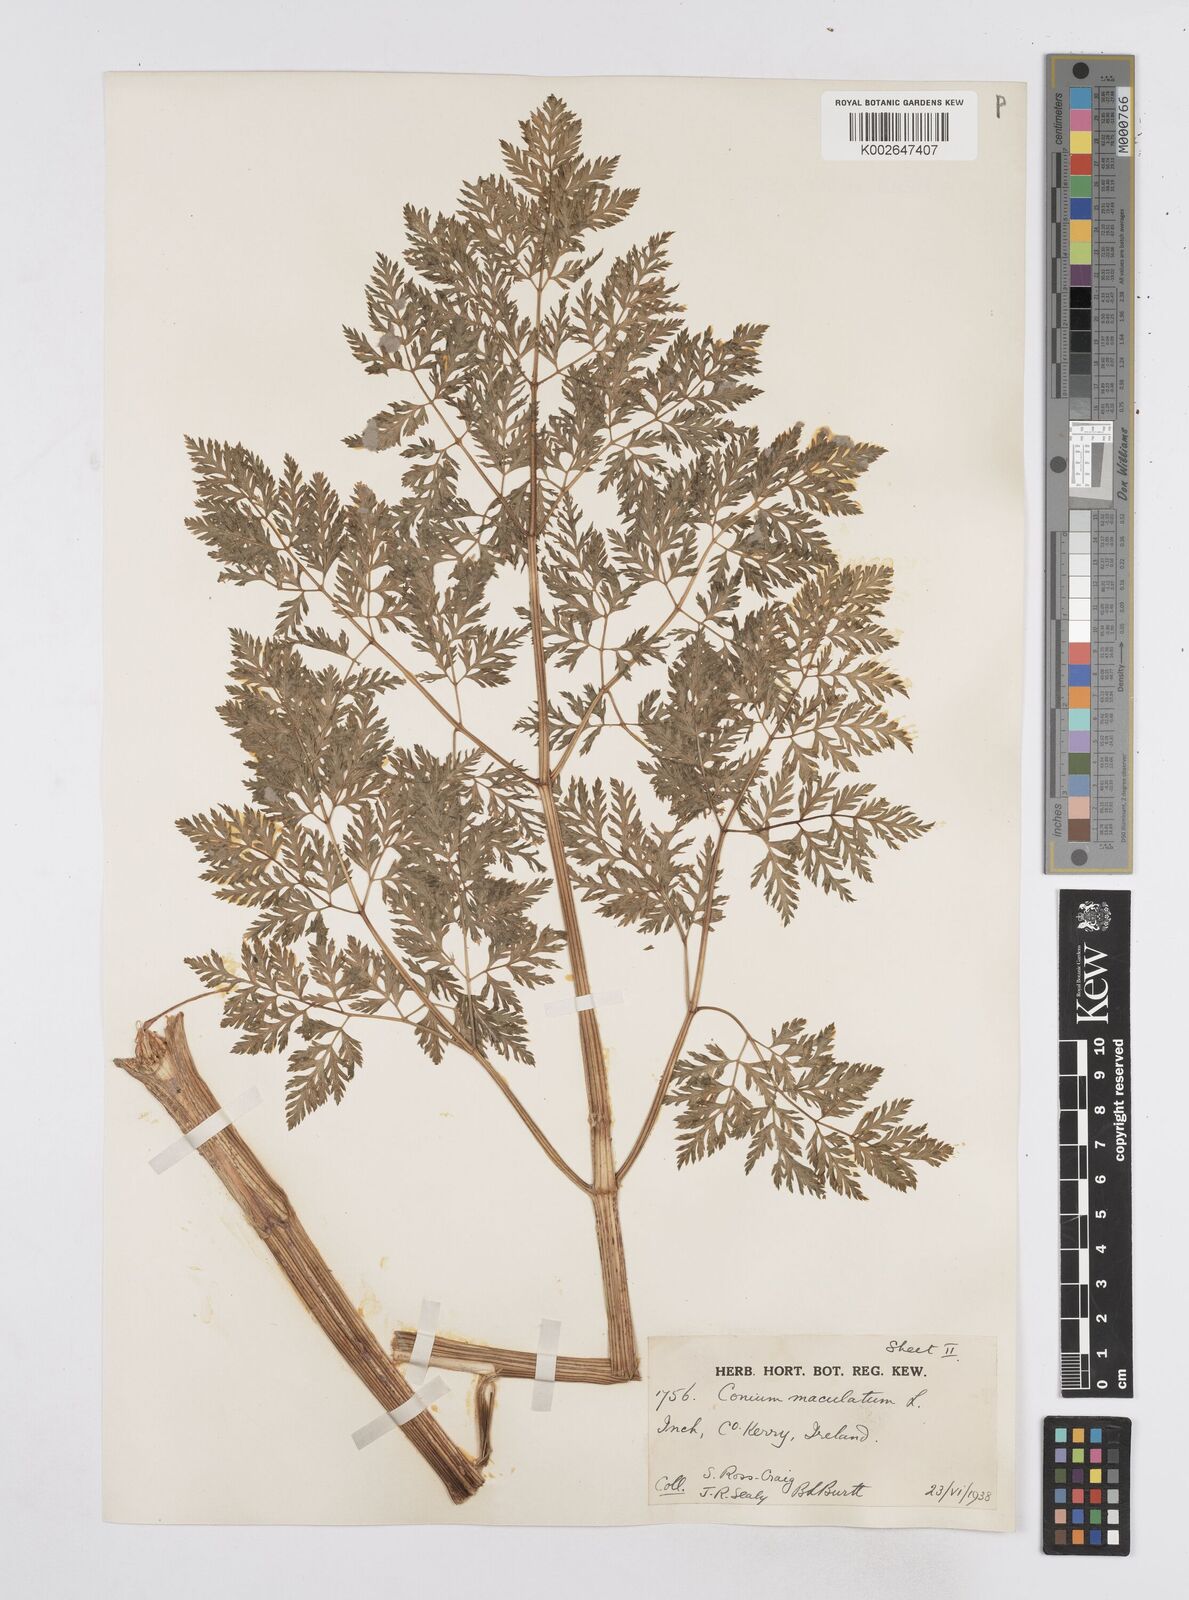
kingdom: Plantae
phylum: Tracheophyta
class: Magnoliopsida
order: Apiales
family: Apiaceae
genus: Conium
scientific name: Conium maculatum
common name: Hemlock
